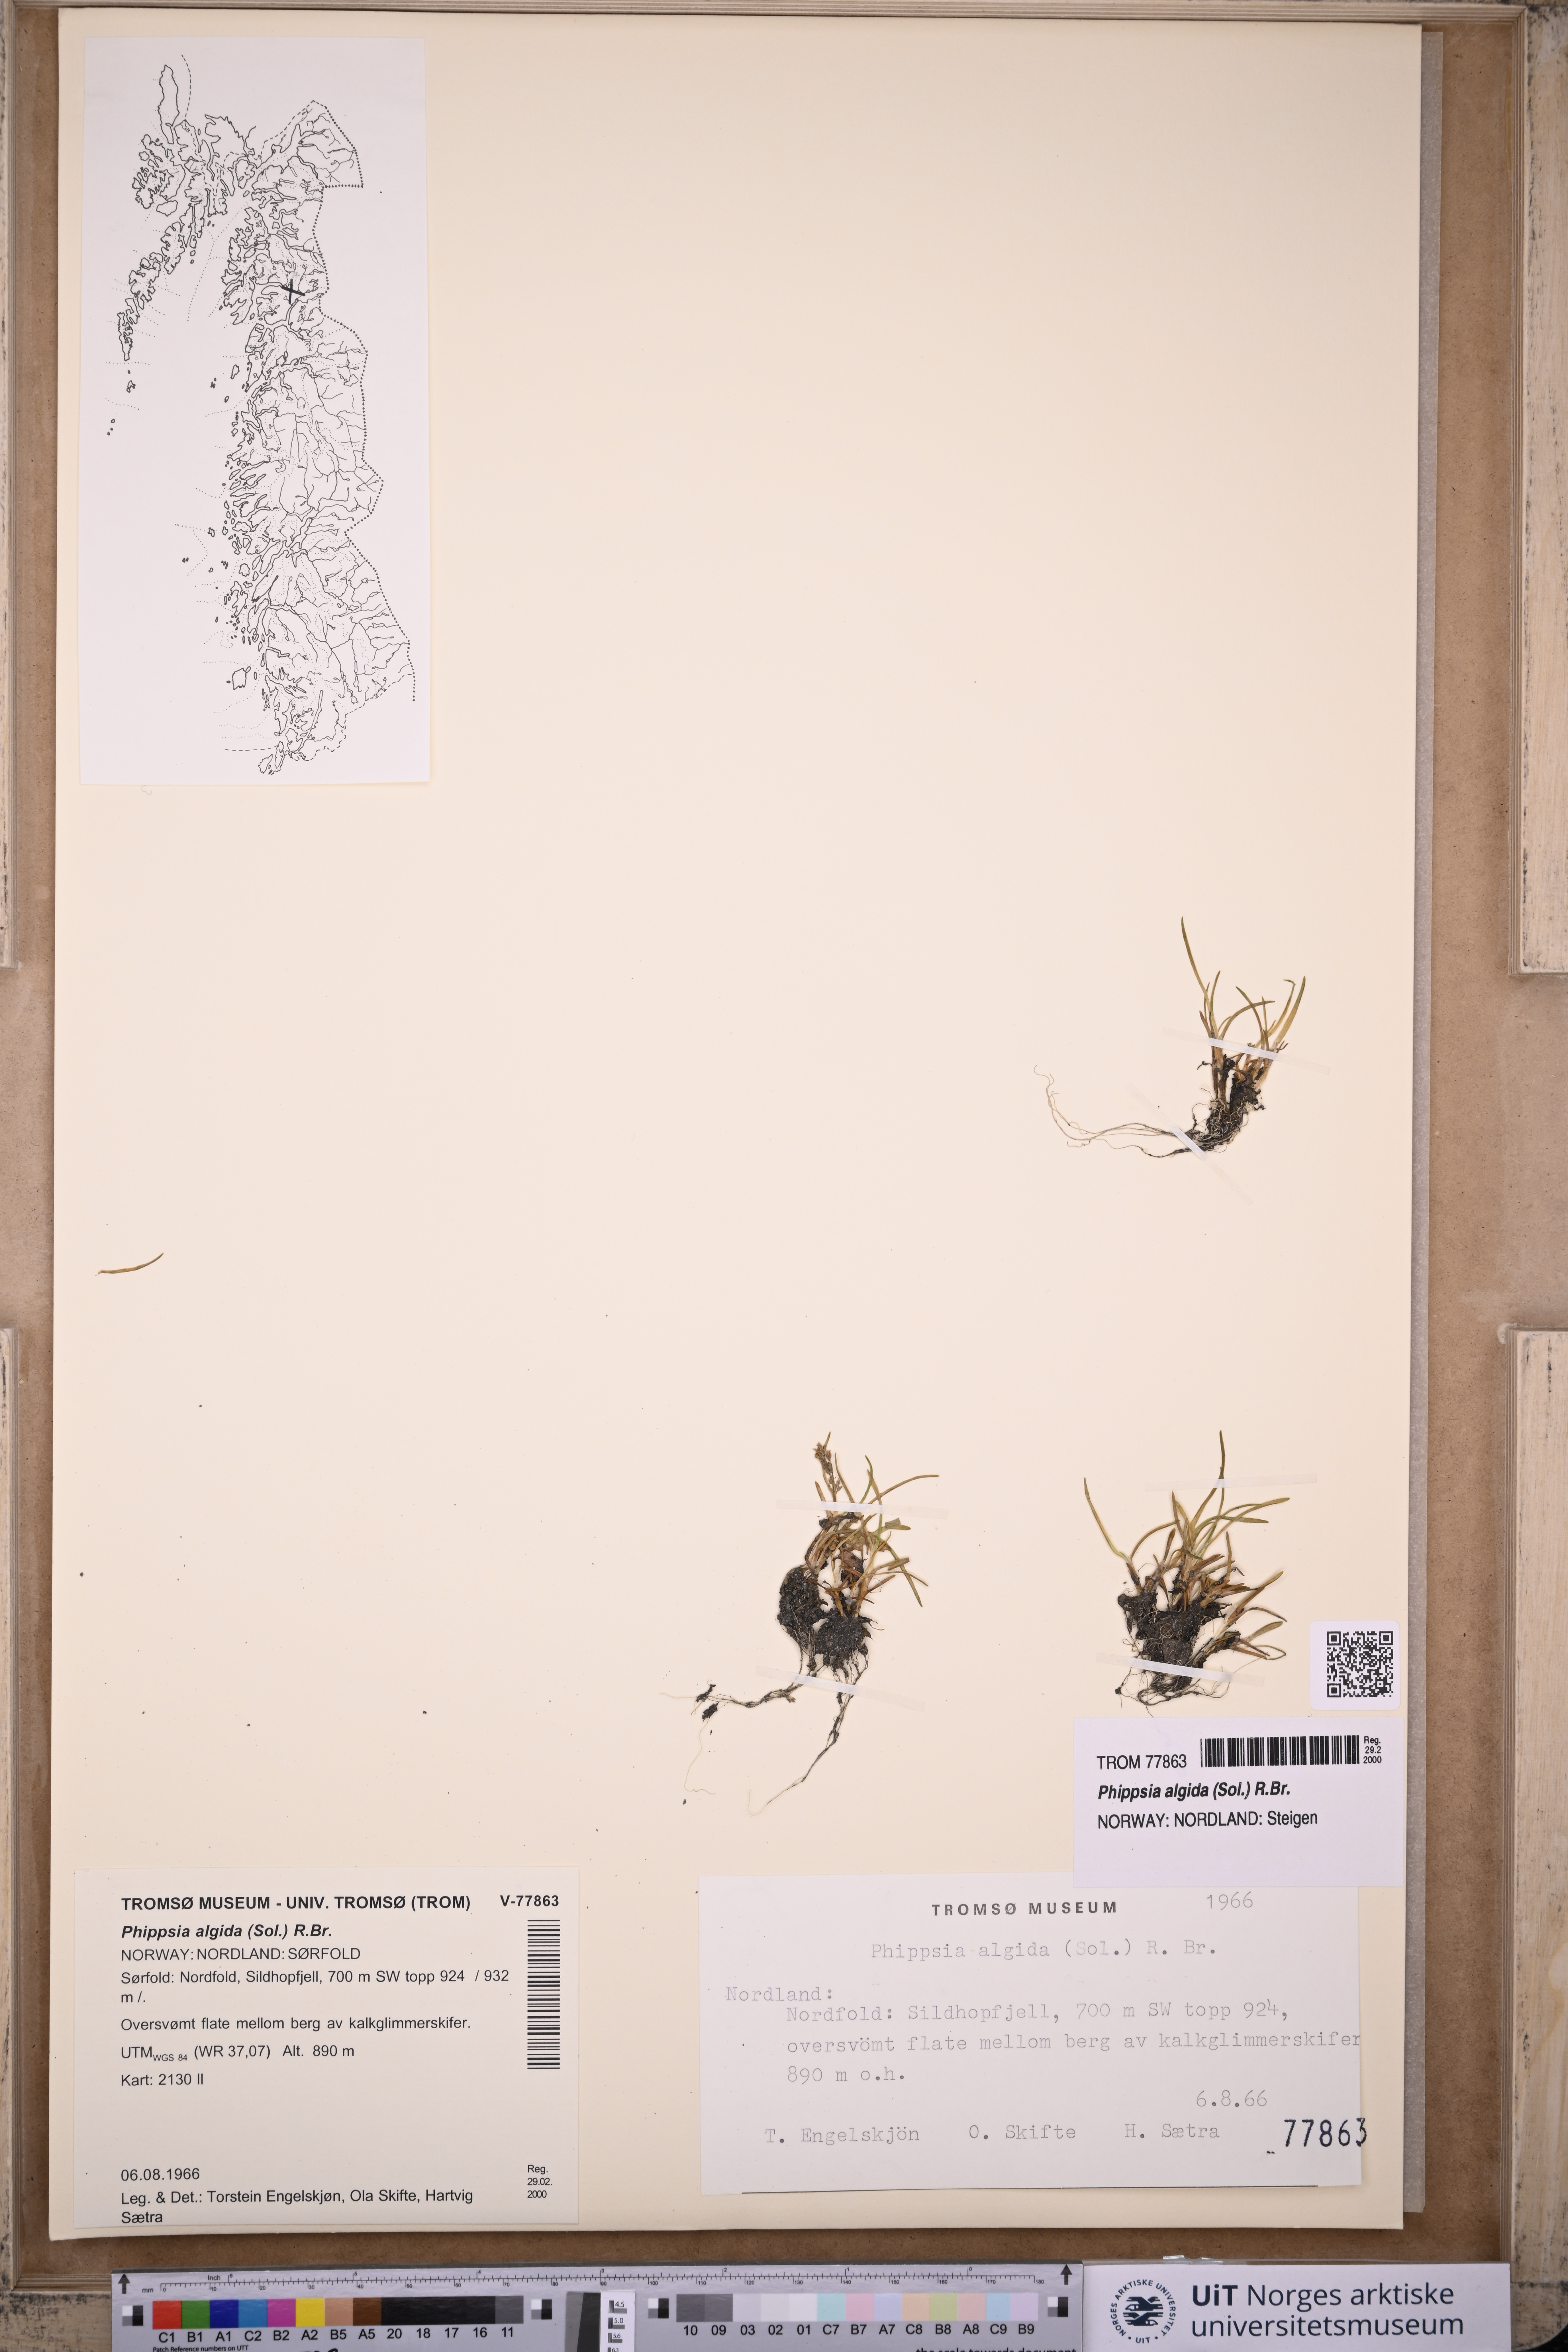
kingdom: Plantae
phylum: Tracheophyta
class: Liliopsida
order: Poales
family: Poaceae
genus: Phippsia
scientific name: Phippsia algida
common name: Ice grass
